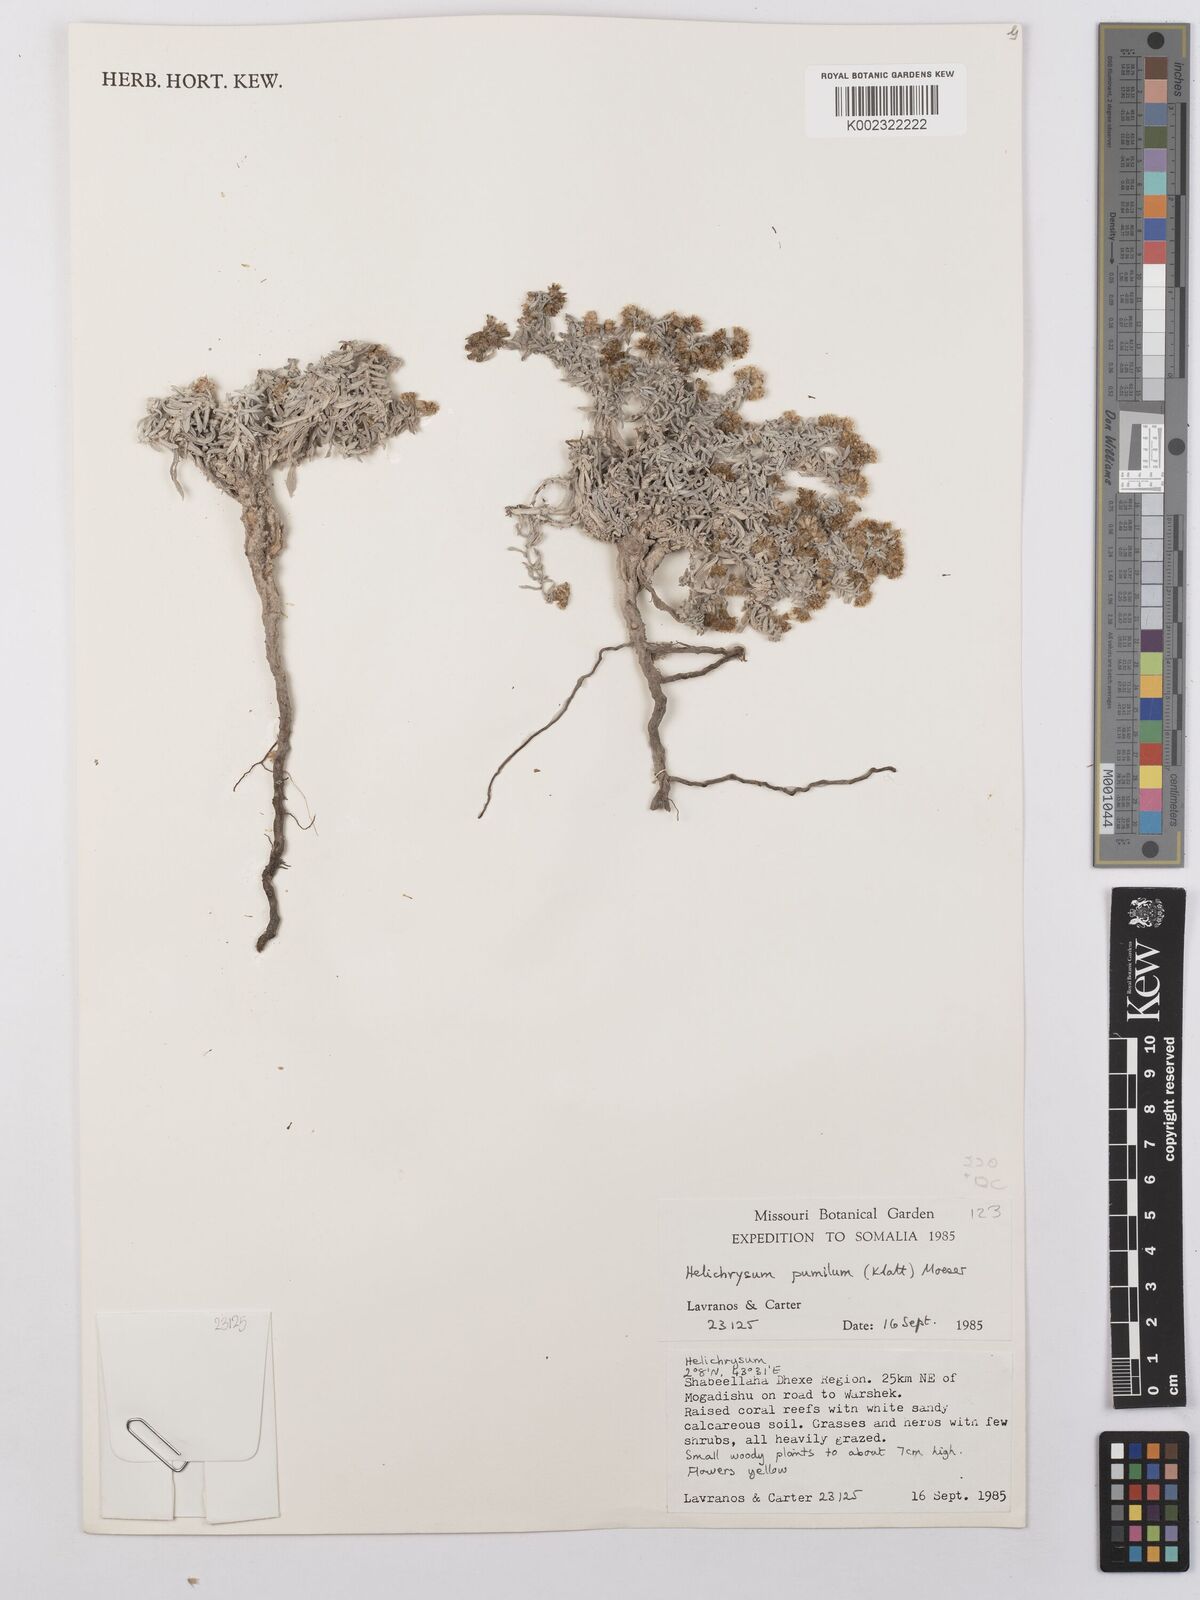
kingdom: Plantae
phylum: Tracheophyta
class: Magnoliopsida
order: Asterales
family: Asteraceae
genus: Helichrysum
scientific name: Helichrysum pumilum
